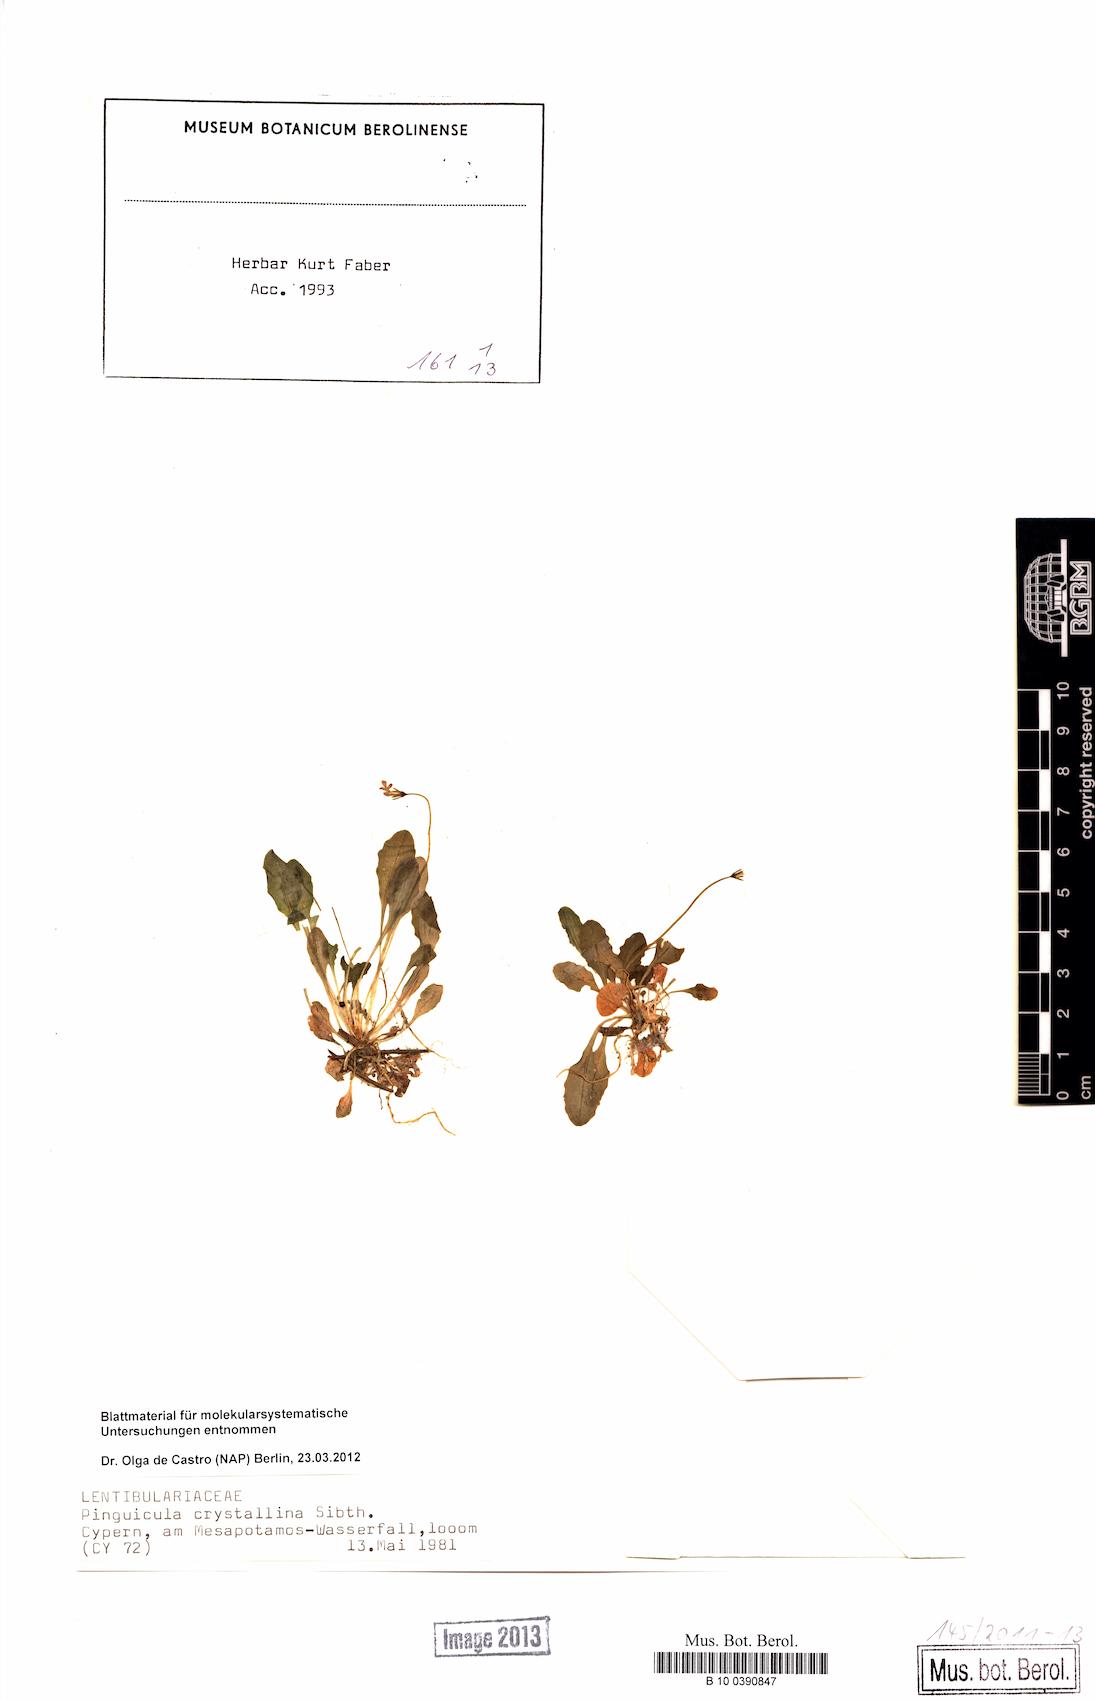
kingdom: Plantae
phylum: Tracheophyta
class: Magnoliopsida
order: Lamiales
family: Lentibulariaceae
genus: Pinguicula
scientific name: Pinguicula crystallina
